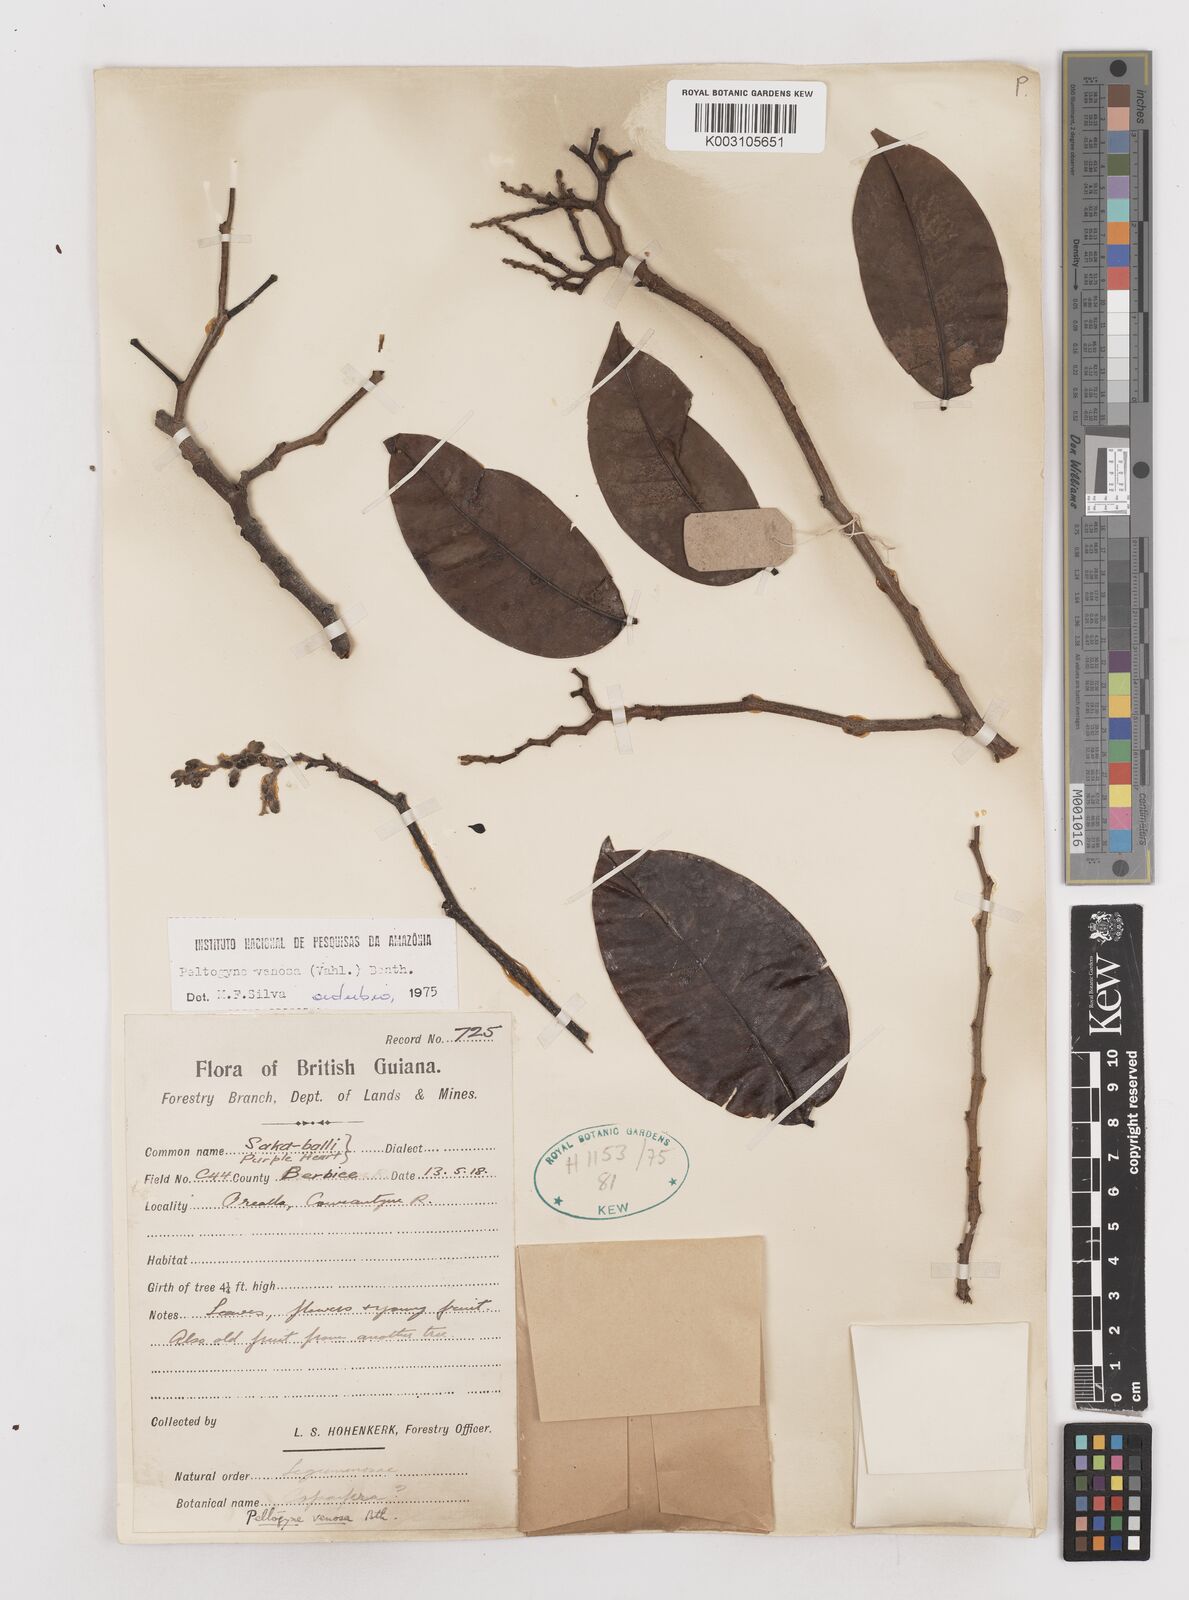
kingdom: Plantae
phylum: Tracheophyta
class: Magnoliopsida
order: Fabales
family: Fabaceae
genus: Peltogyne
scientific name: Peltogyne venosa
